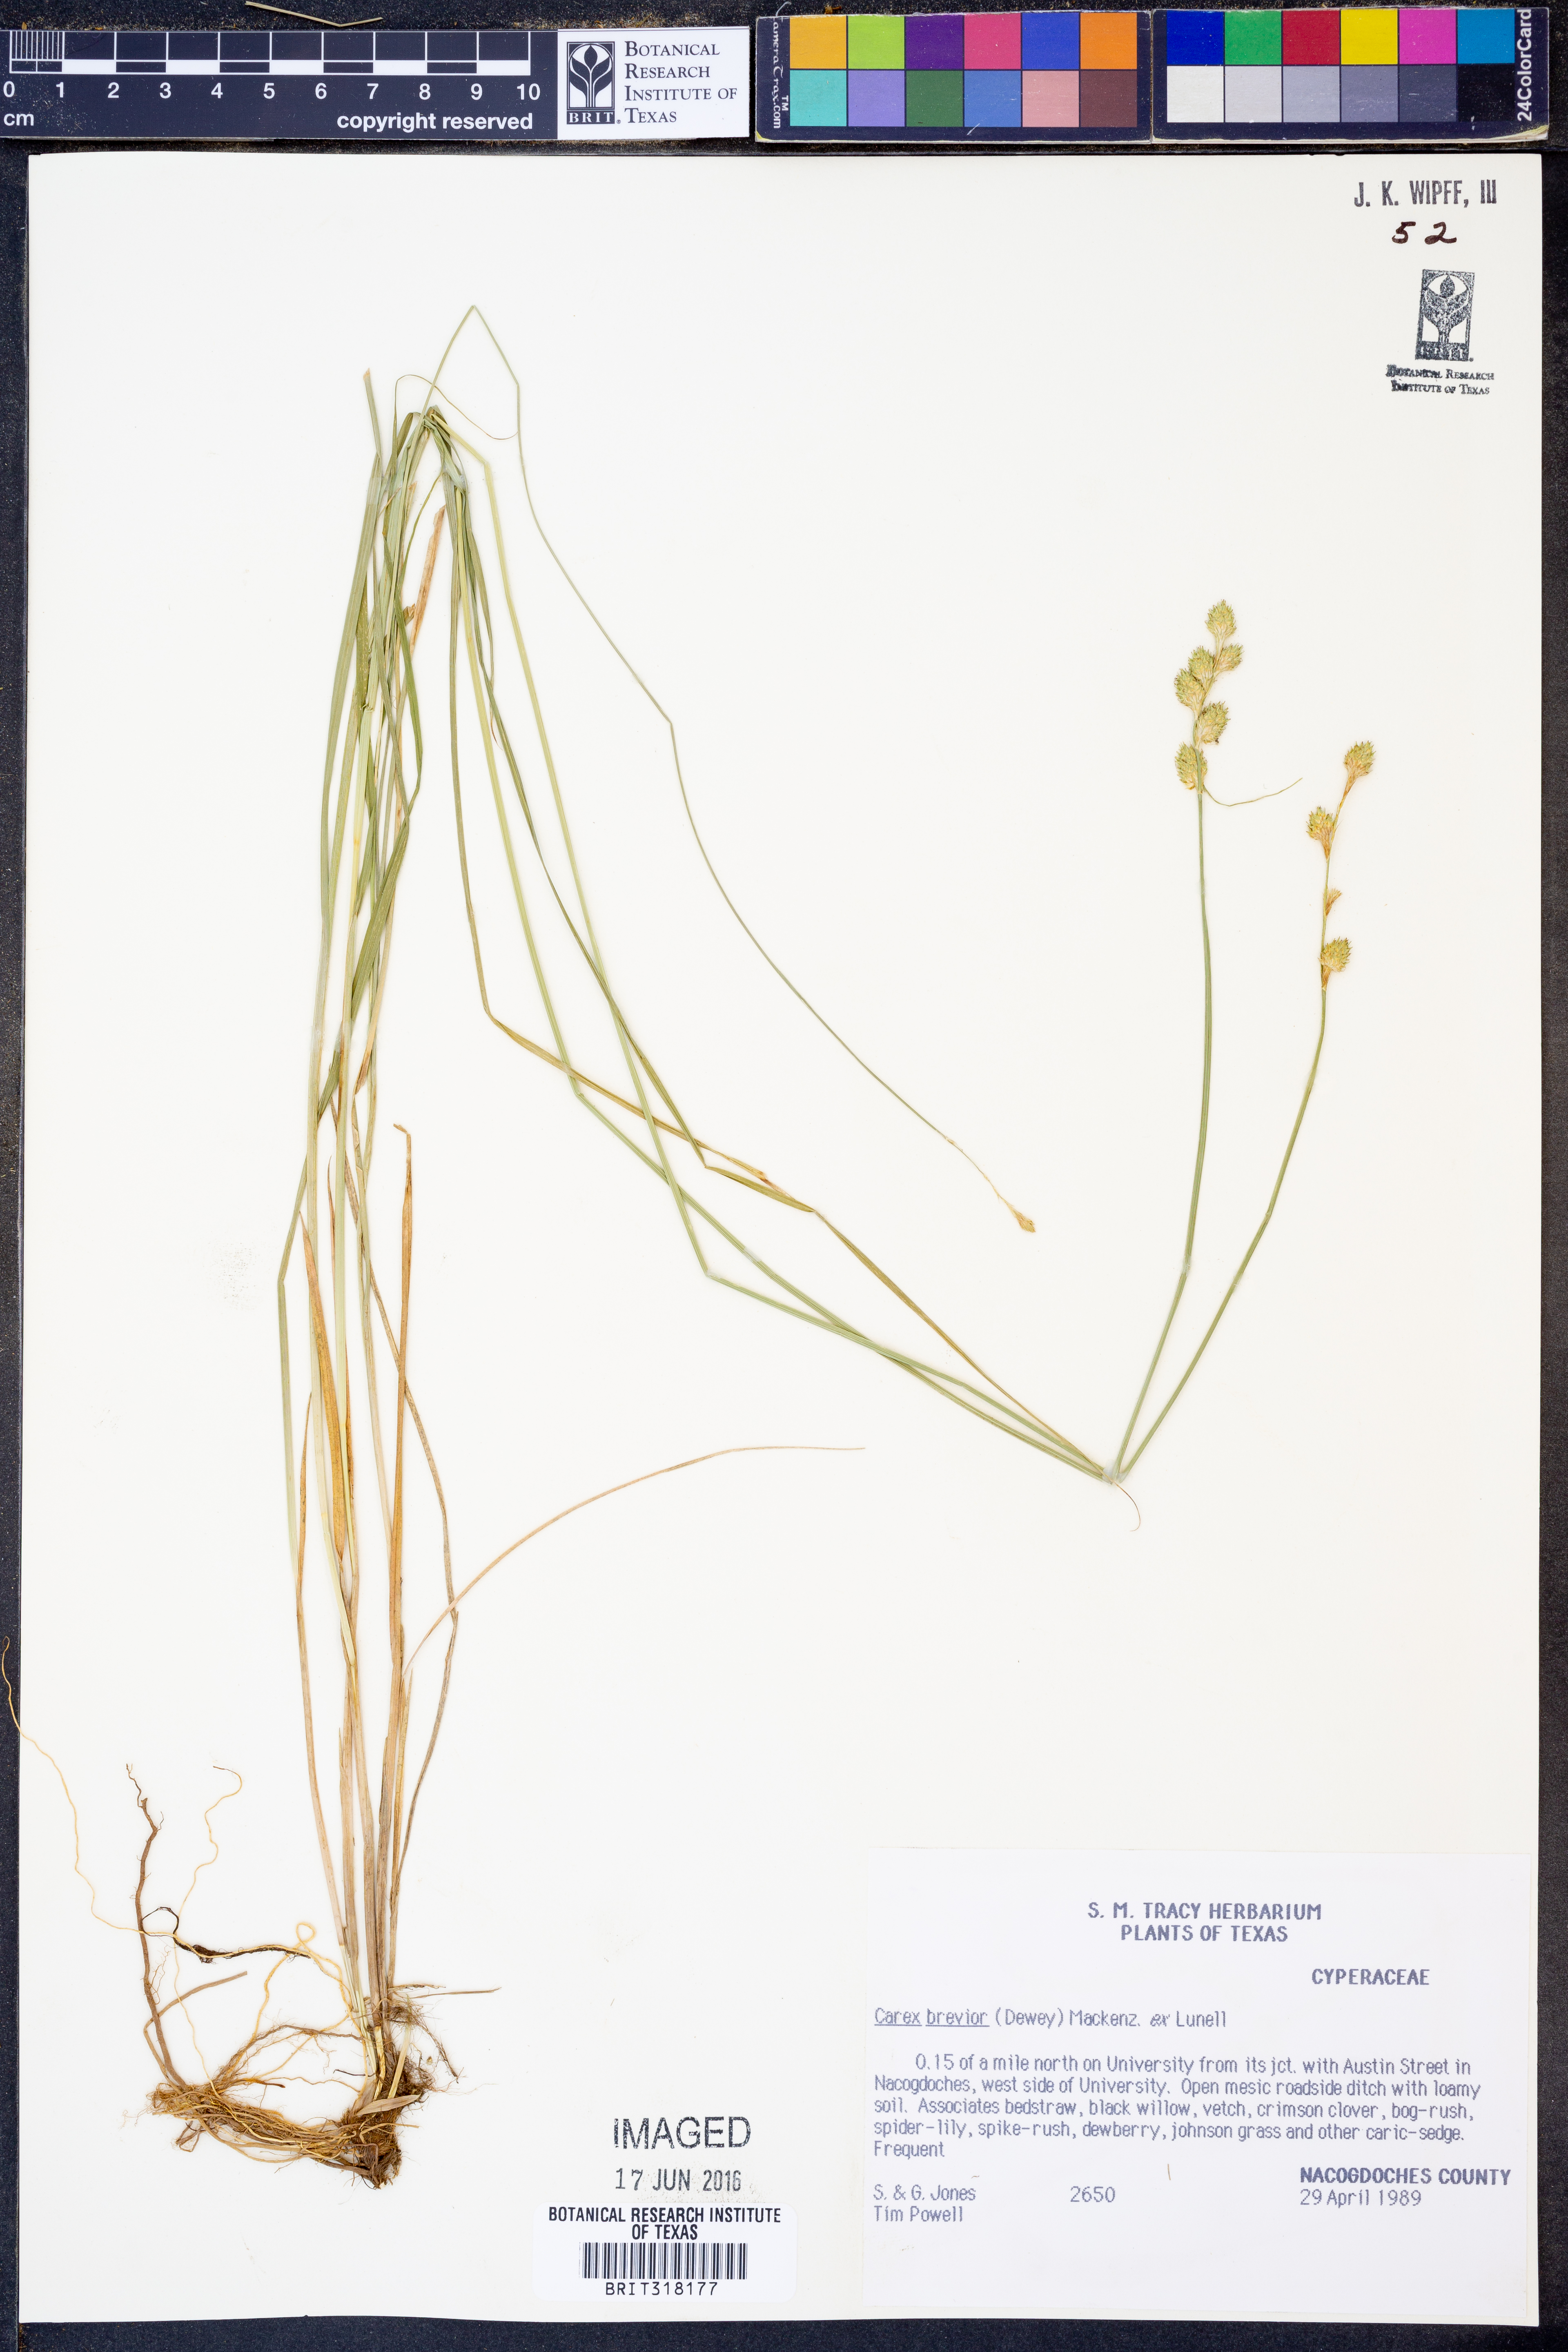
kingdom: Plantae
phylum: Tracheophyta
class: Liliopsida
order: Poales
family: Cyperaceae
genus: Carex
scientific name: Carex brevior
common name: Brevior sedge
